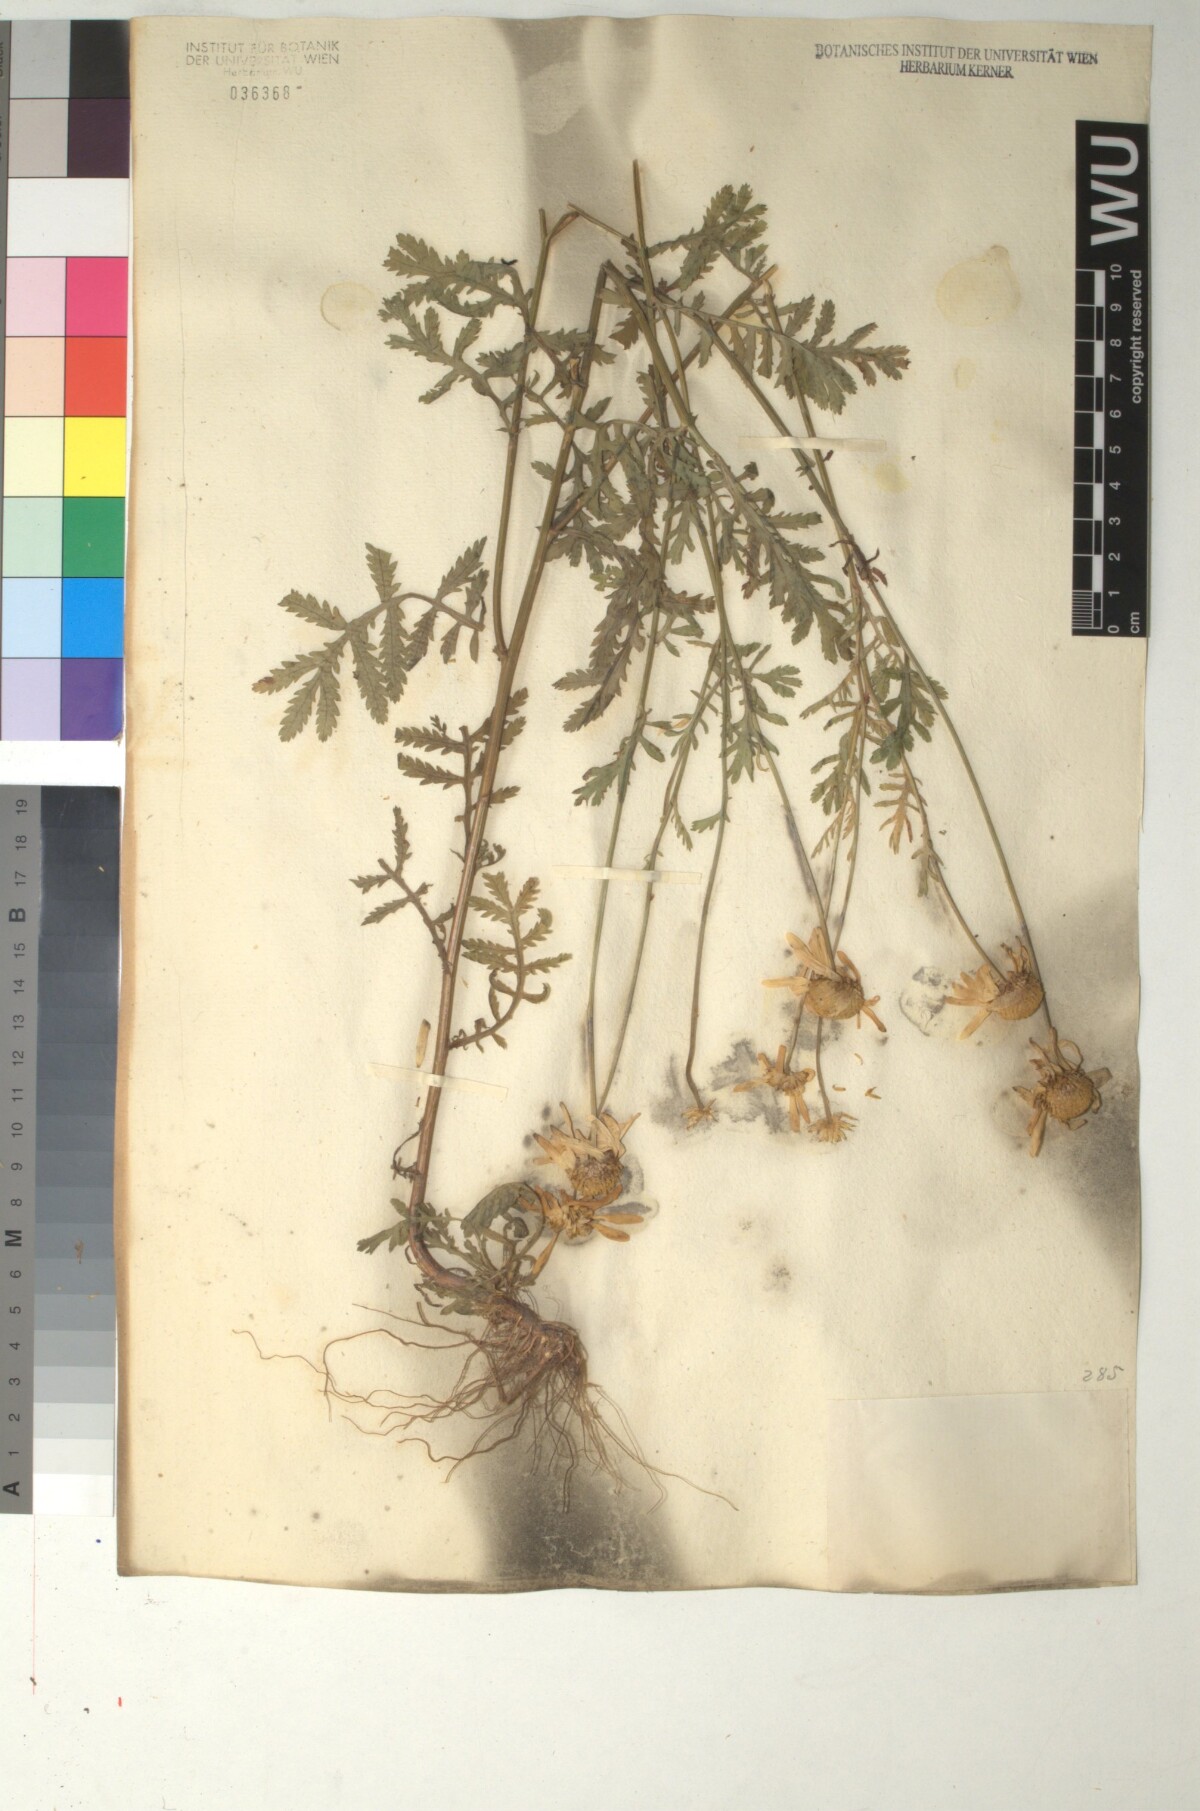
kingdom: Plantae
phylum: Tracheophyta
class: Magnoliopsida
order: Asterales
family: Asteraceae
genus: Cota
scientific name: Cota macrantha
